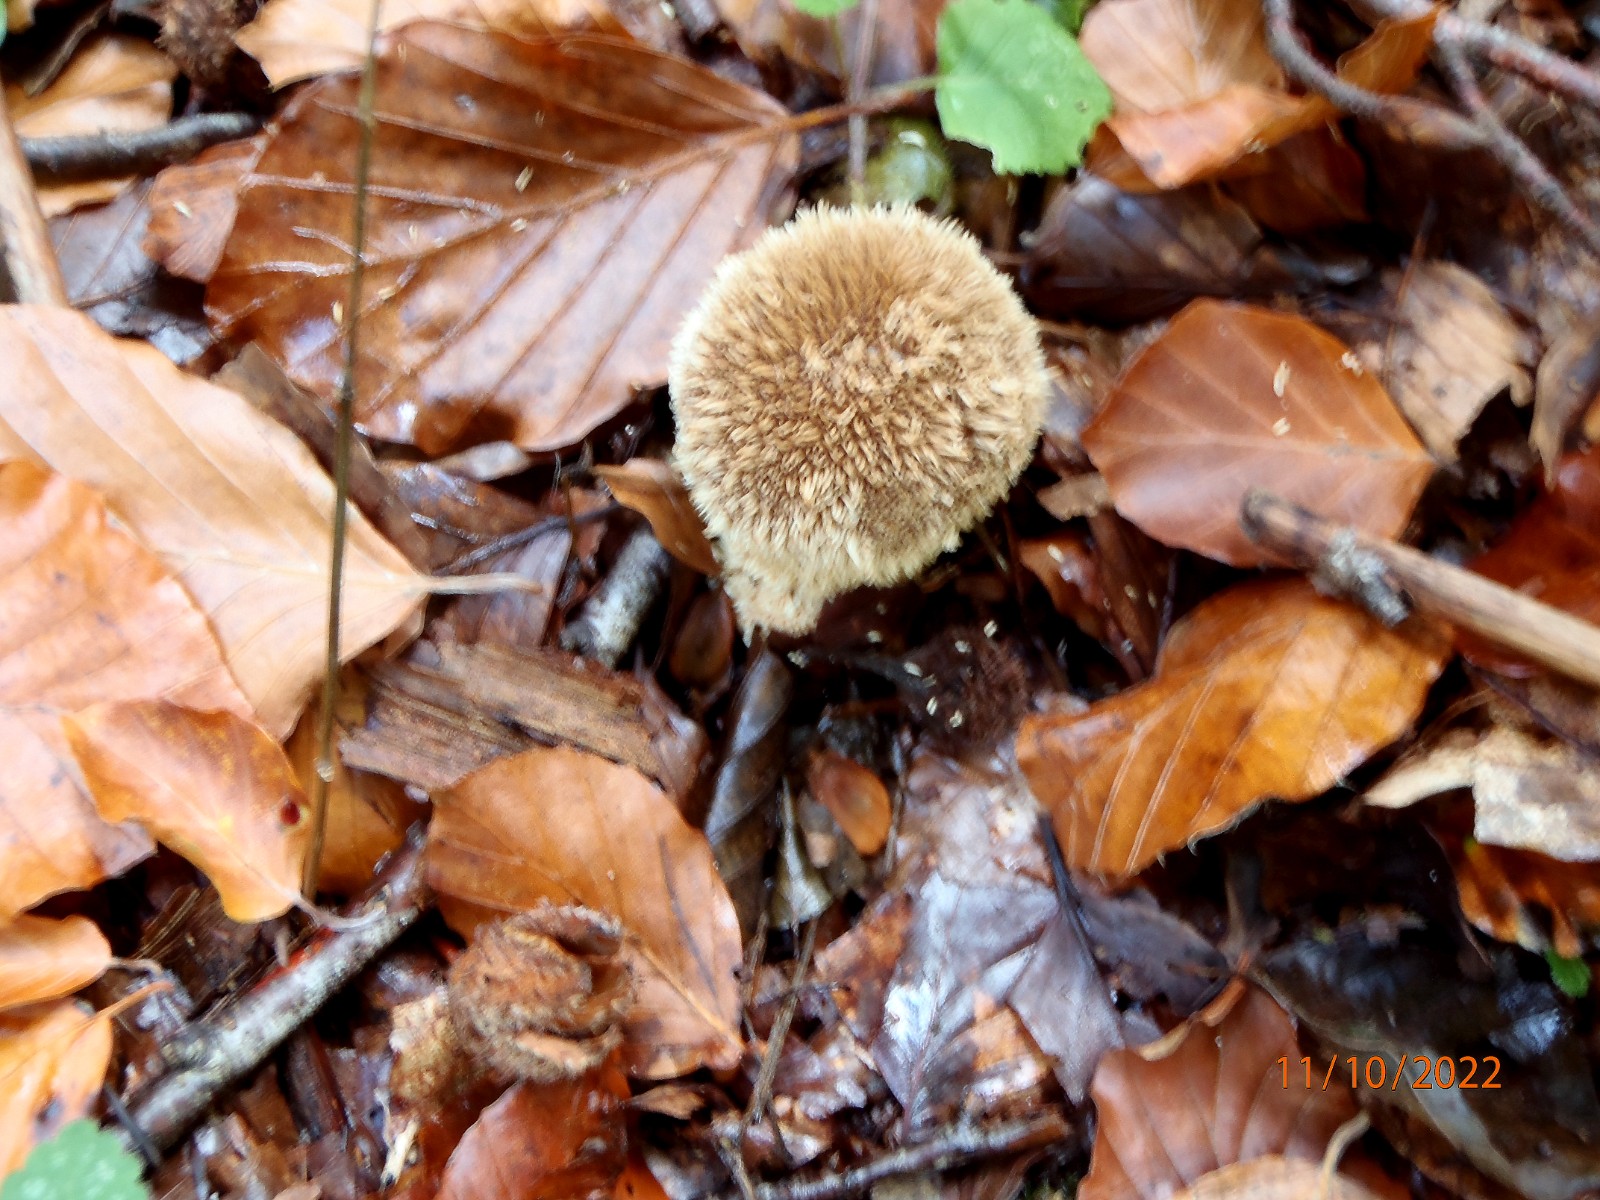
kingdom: Fungi
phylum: Basidiomycota
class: Agaricomycetes
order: Agaricales
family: Lycoperdaceae
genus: Lycoperdon
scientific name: Lycoperdon echinatum
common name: pindsvine-støvbold
